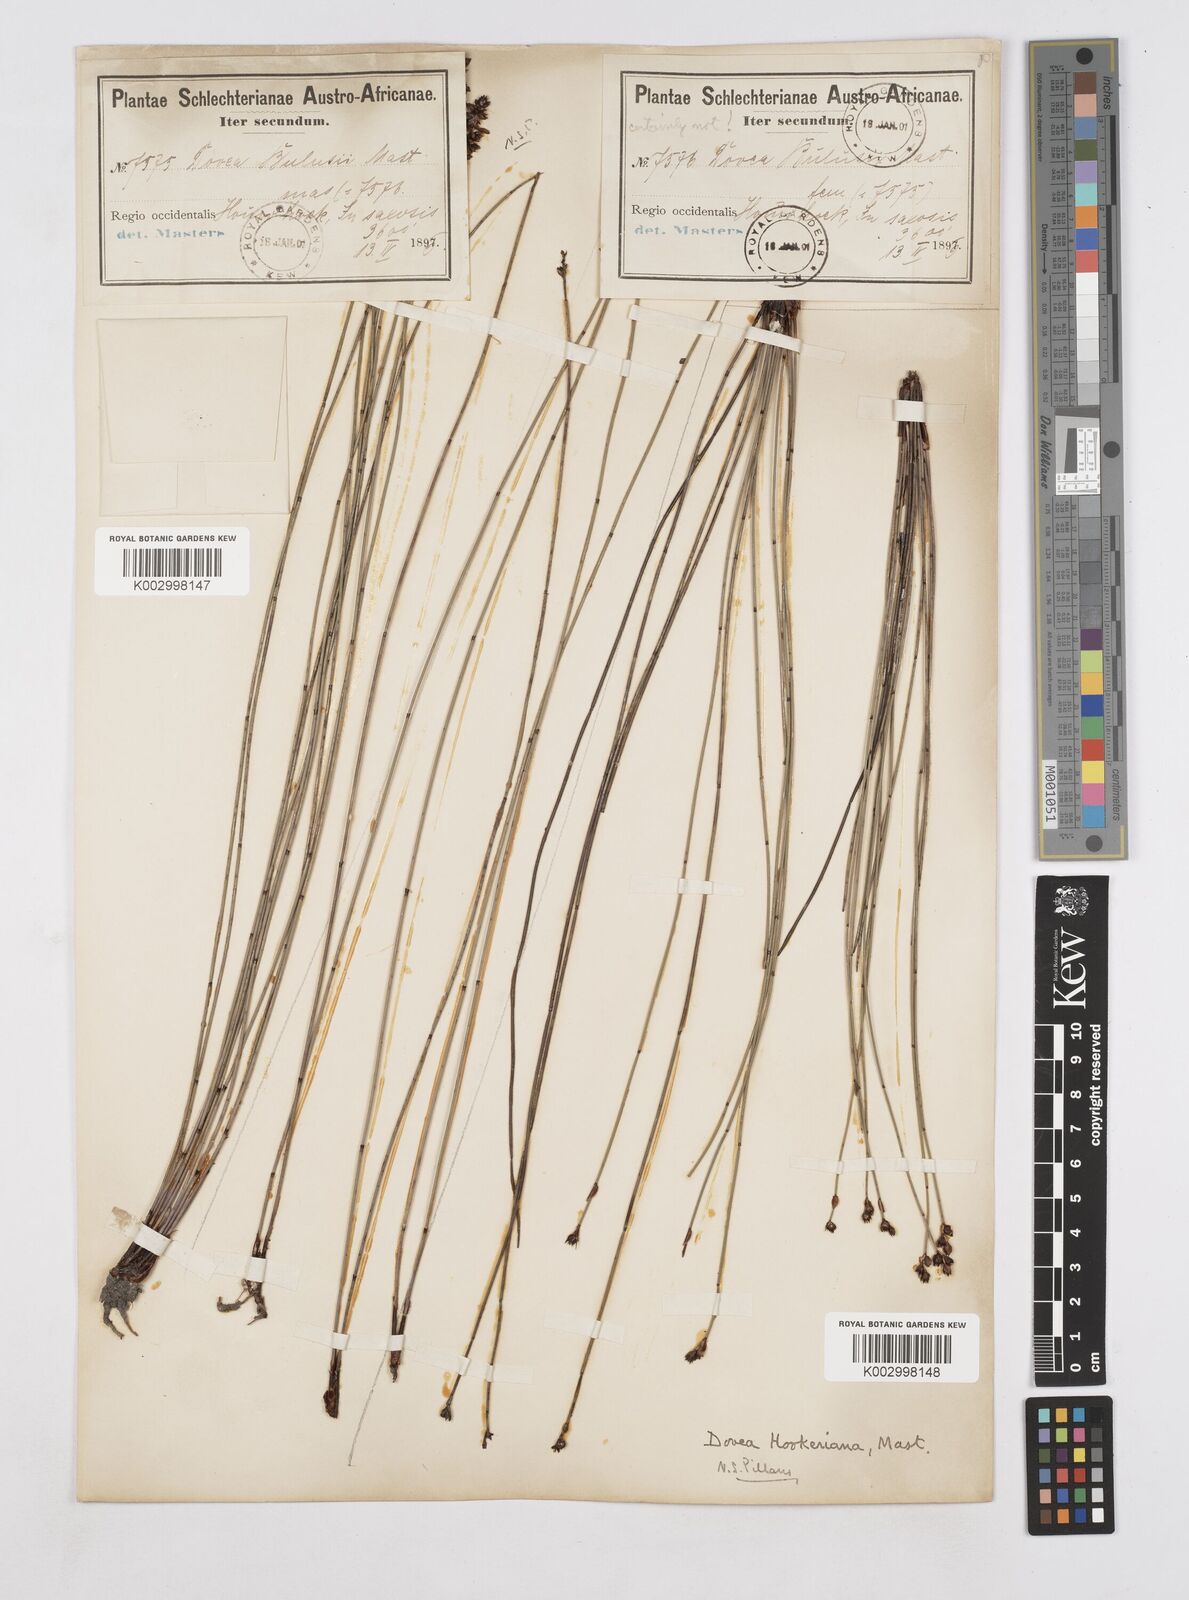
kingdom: Plantae
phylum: Tracheophyta
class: Liliopsida
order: Poales
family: Restionaceae
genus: Elegia
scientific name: Elegia hookeriana
